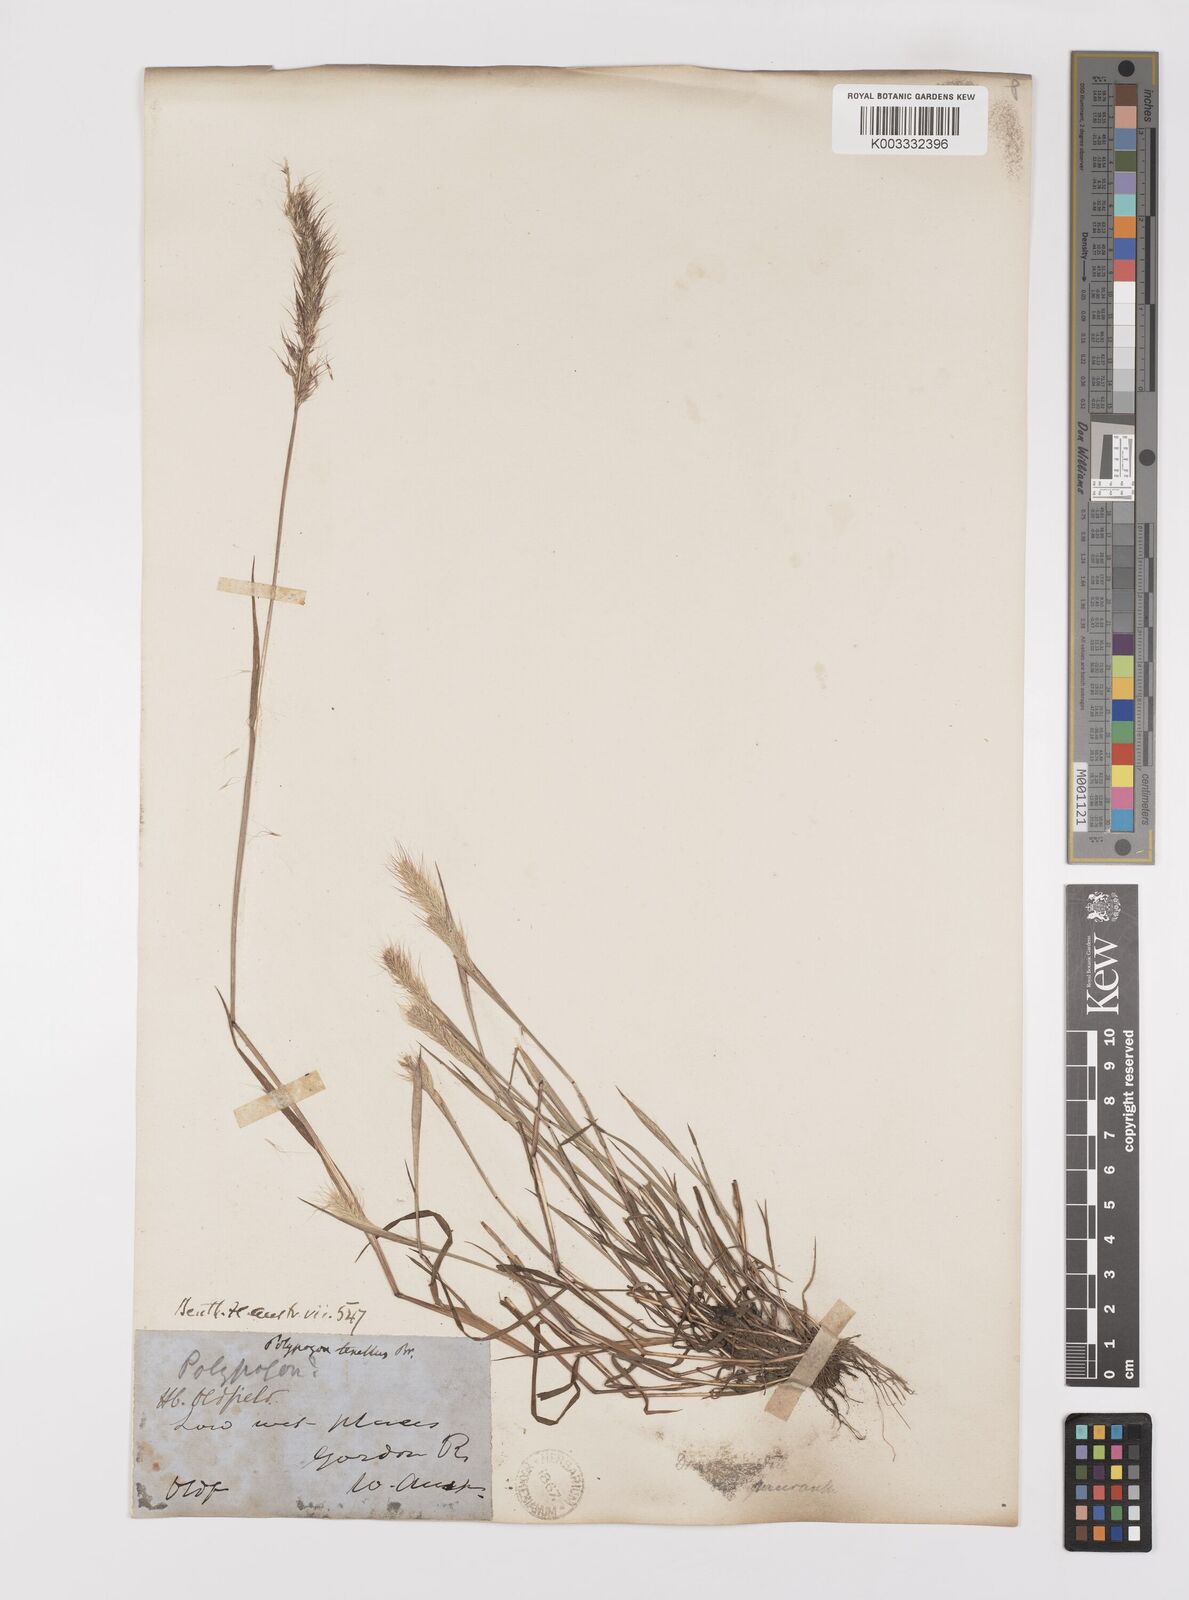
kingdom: Plantae
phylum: Tracheophyta
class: Liliopsida
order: Poales
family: Poaceae
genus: Polypogon
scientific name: Polypogon tenellus
